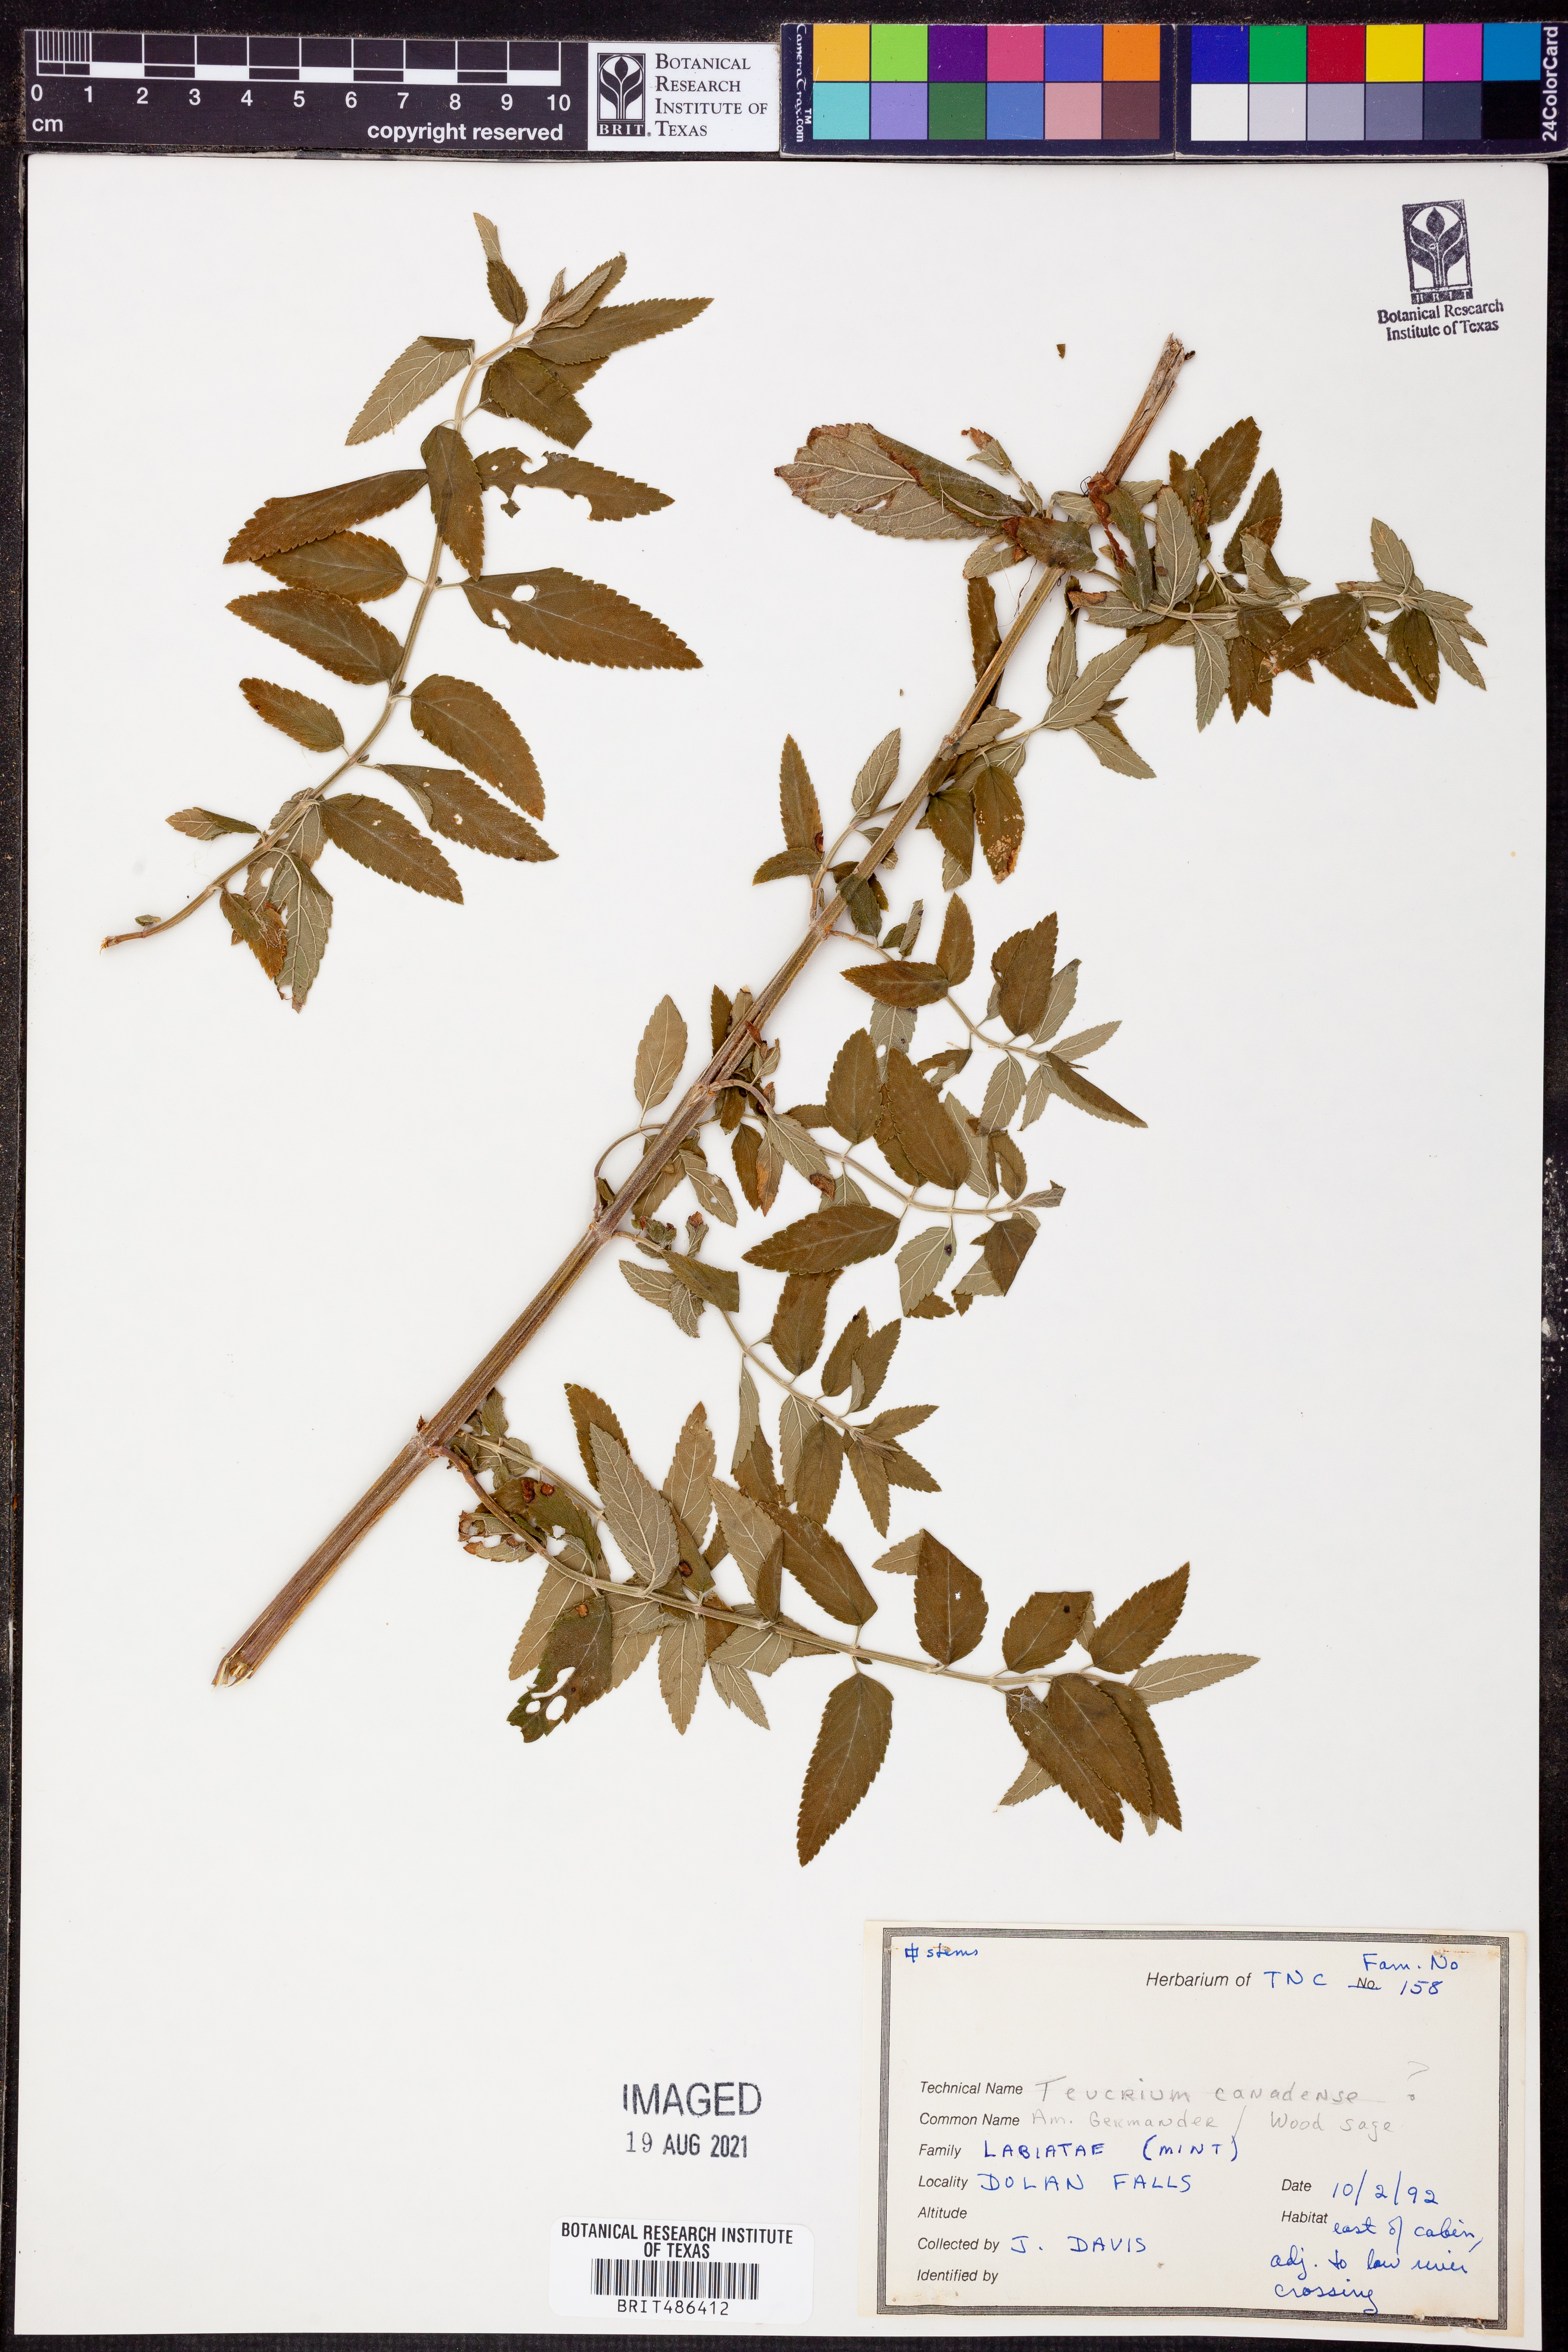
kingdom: Plantae
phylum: Tracheophyta
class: Magnoliopsida
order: Lamiales
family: Lamiaceae
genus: Teucrium
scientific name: Teucrium canadense
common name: American germander
